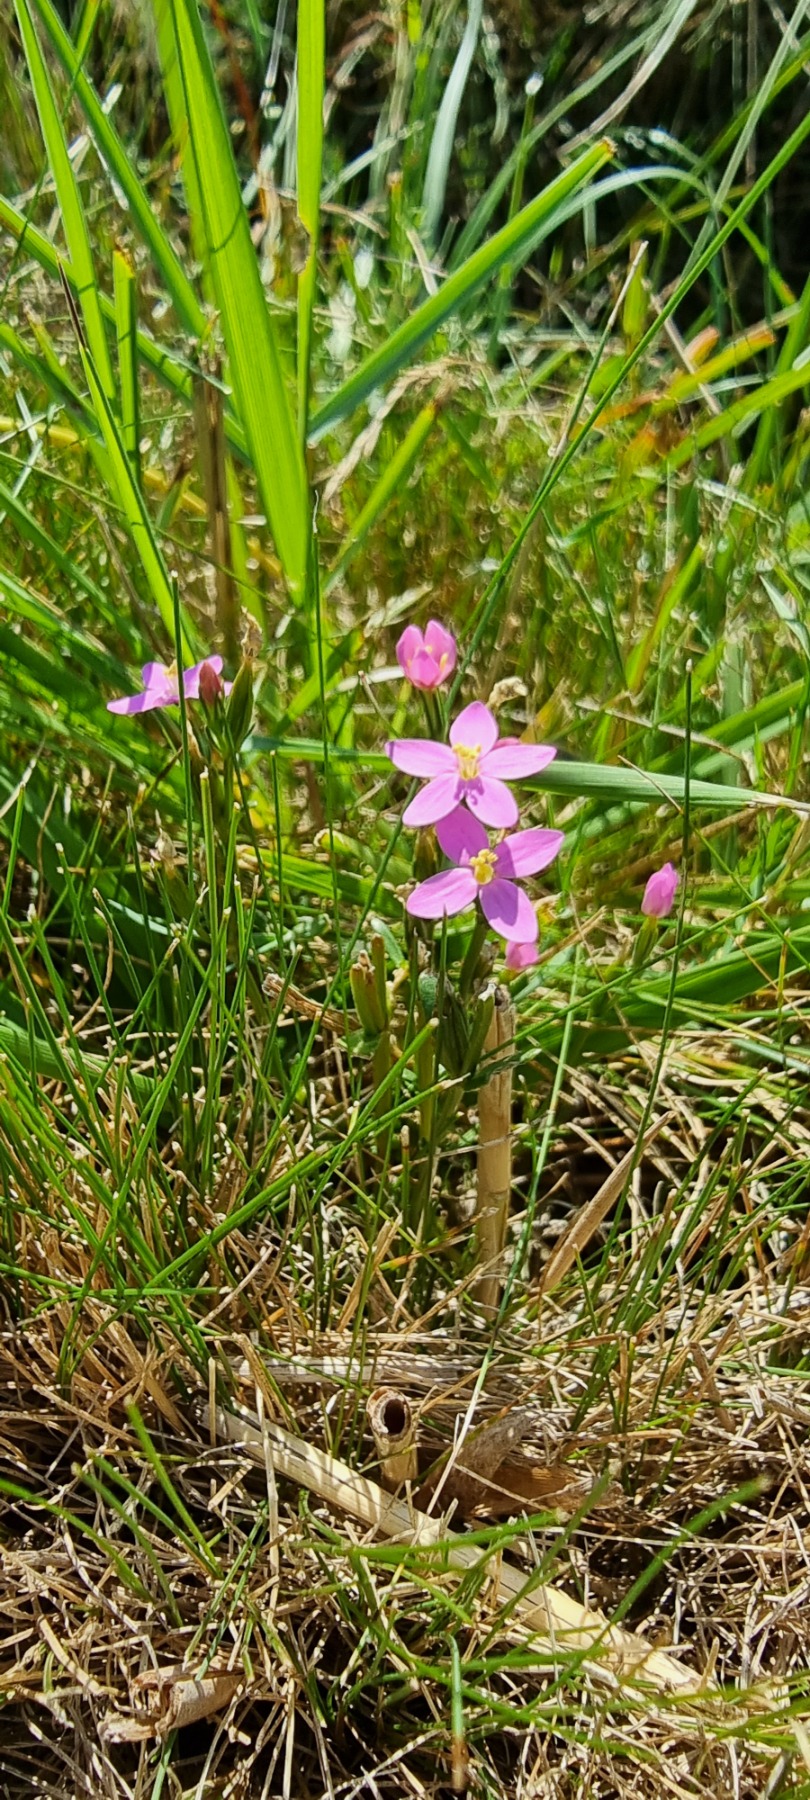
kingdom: Plantae
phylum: Tracheophyta
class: Magnoliopsida
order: Gentianales
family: Gentianaceae
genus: Centaurium
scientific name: Centaurium littorale
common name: Strand-tusindgylden
